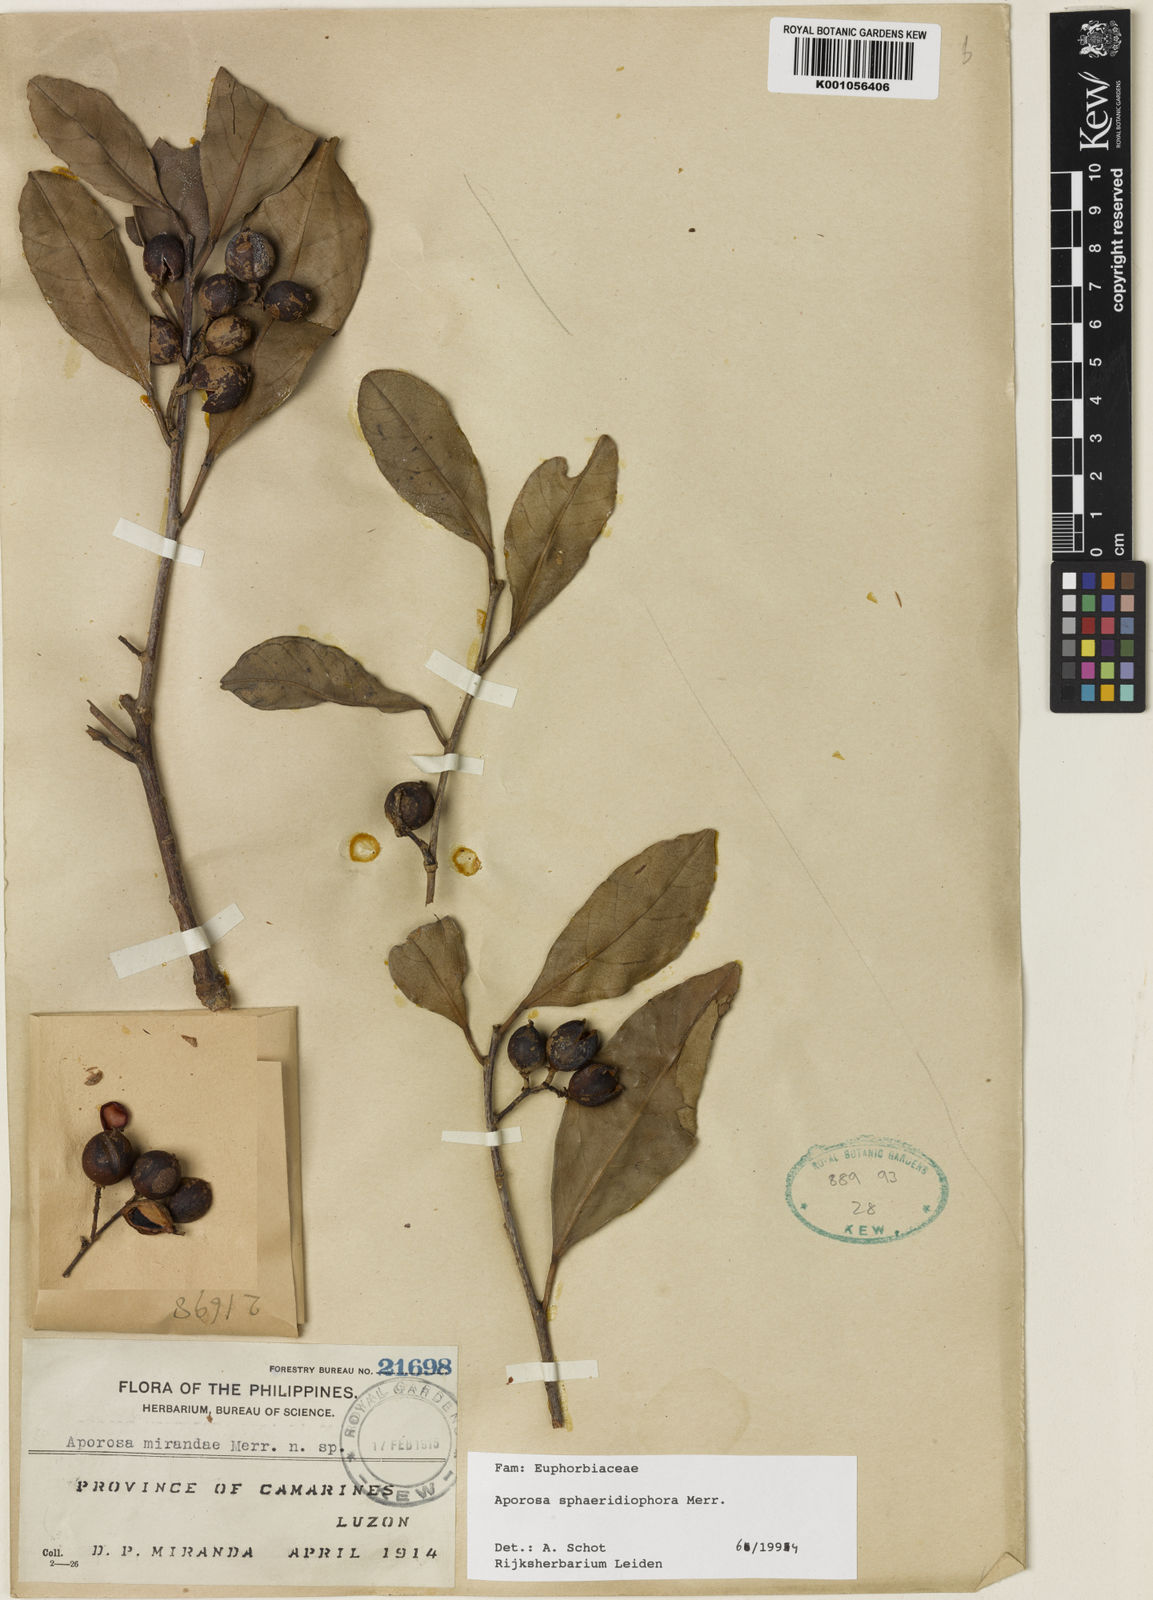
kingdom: Plantae
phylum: Tracheophyta
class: Magnoliopsida
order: Malpighiales
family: Phyllanthaceae
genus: Aporosa
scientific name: Aporosa sphaeridiophora
